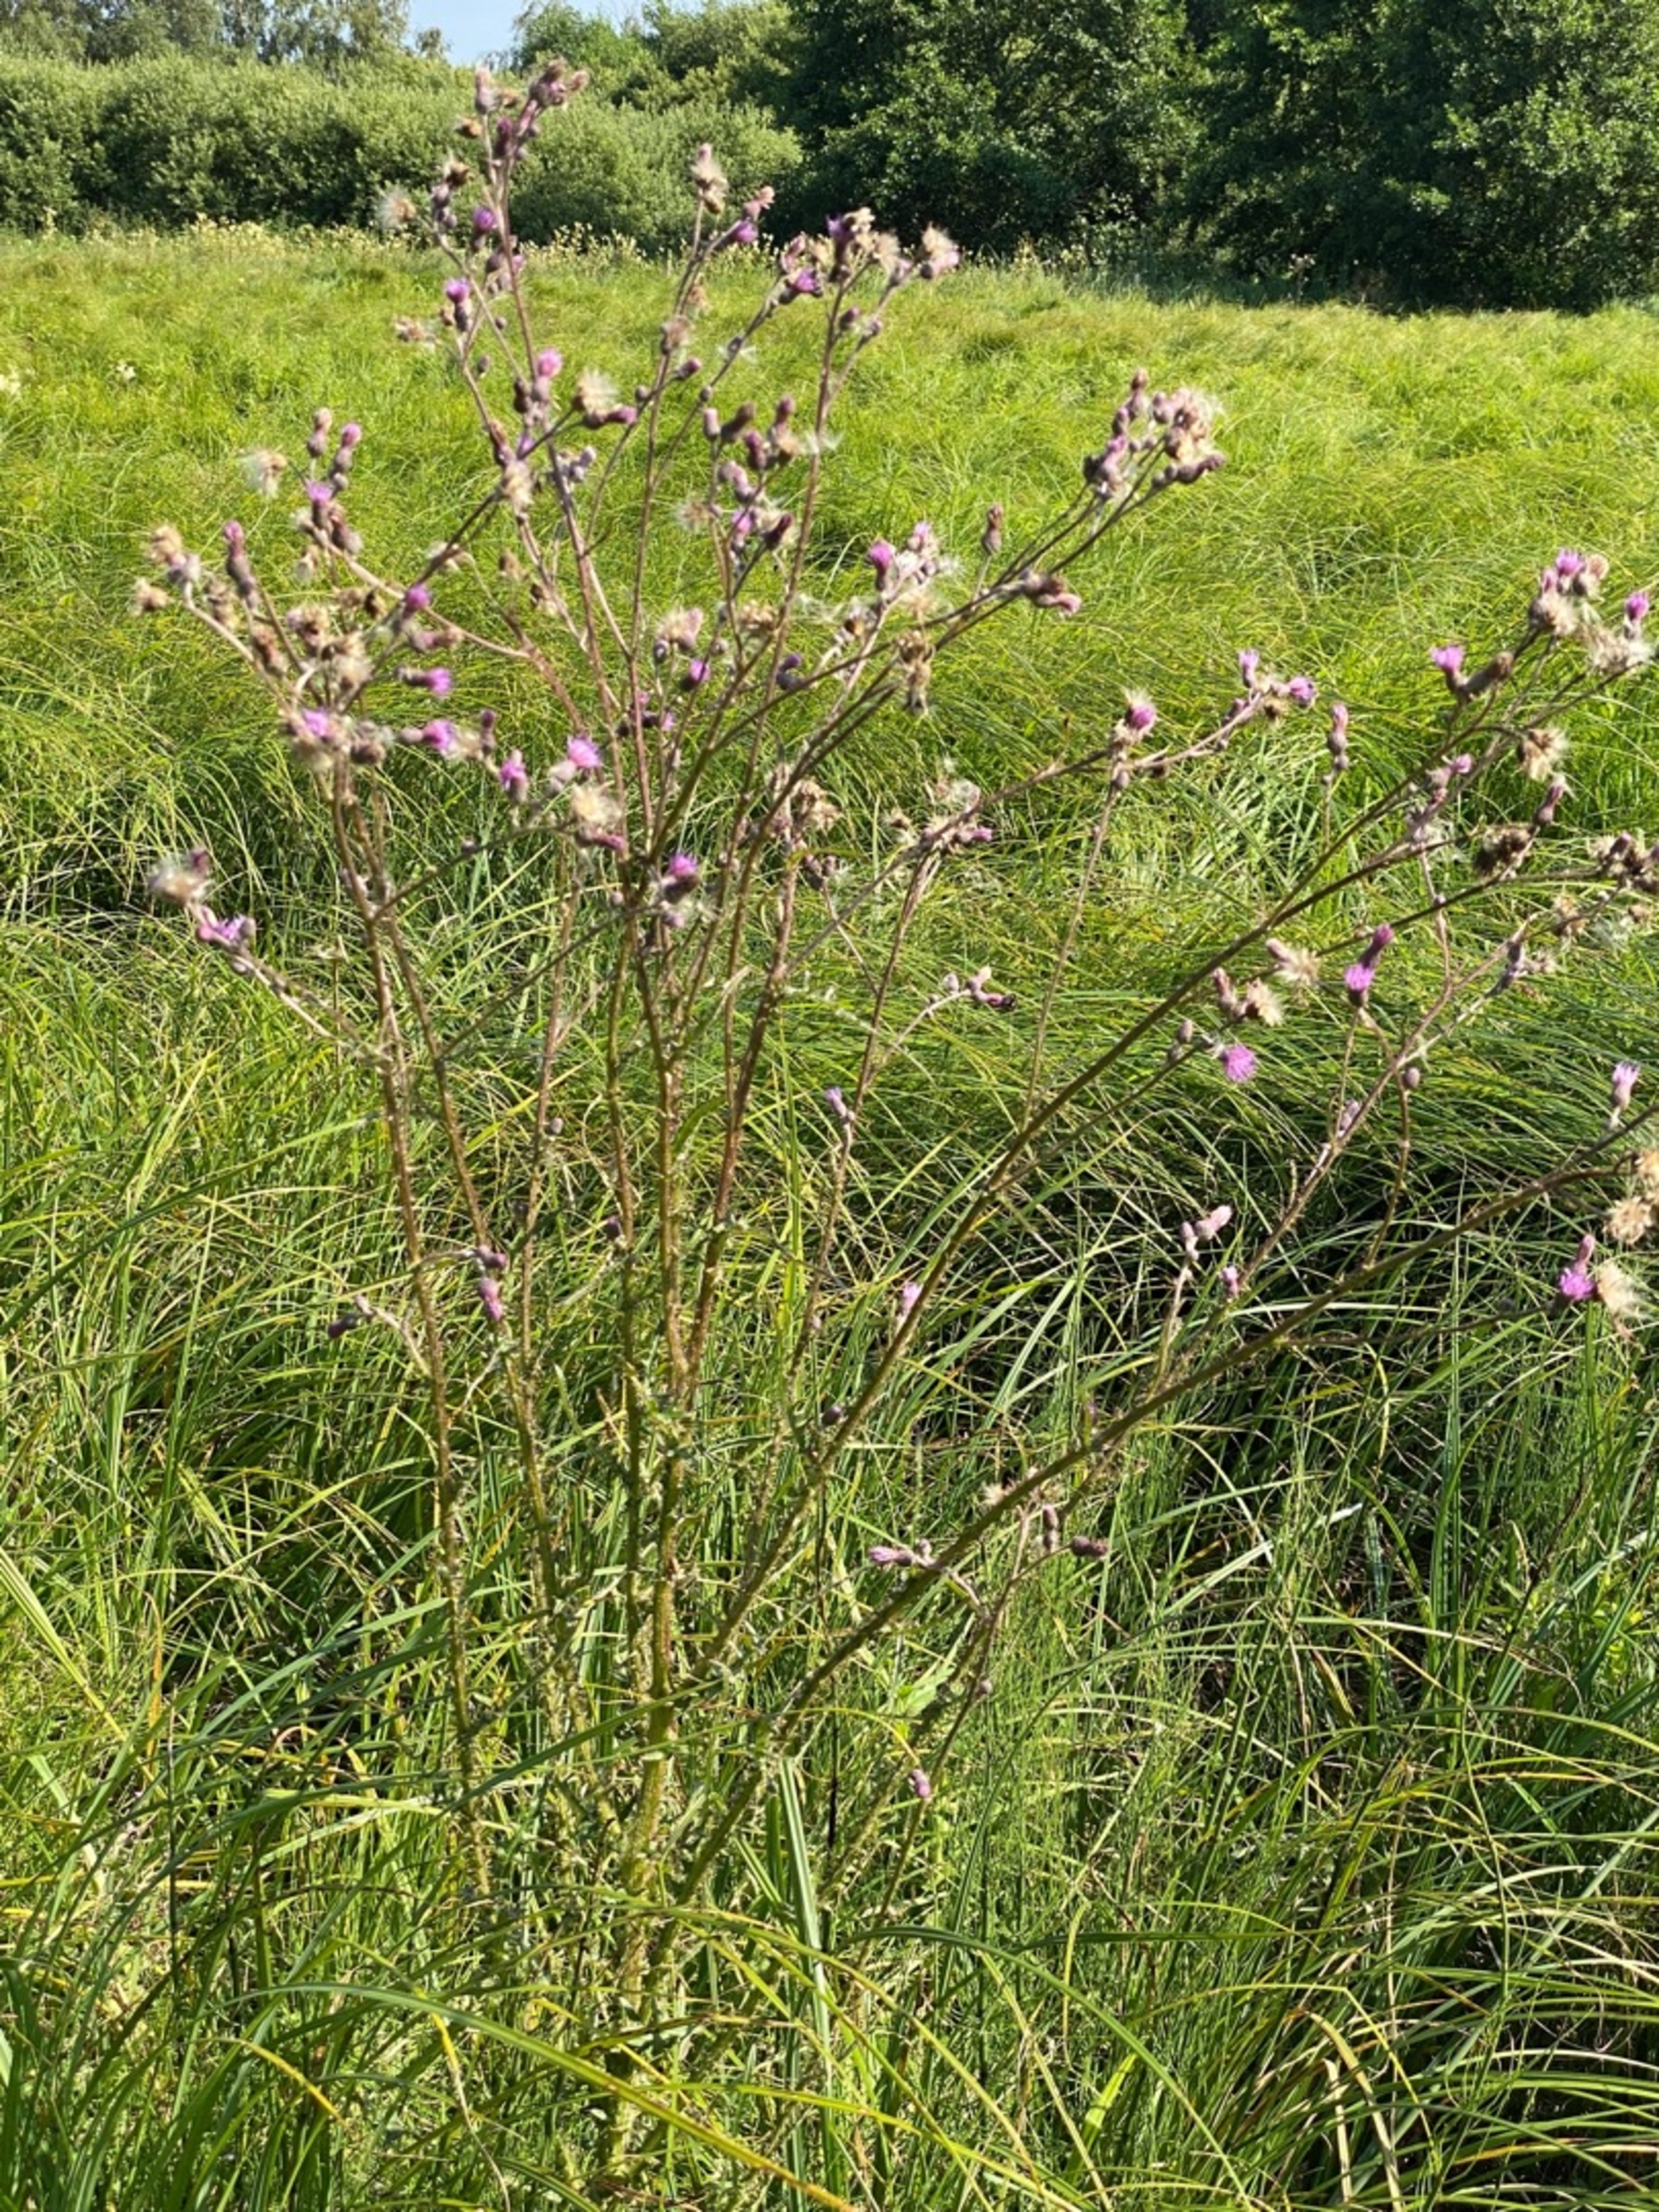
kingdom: Plantae
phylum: Tracheophyta
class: Magnoliopsida
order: Asterales
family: Asteraceae
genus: Cirsium
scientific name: Cirsium palustre
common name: Kær-tidsel
